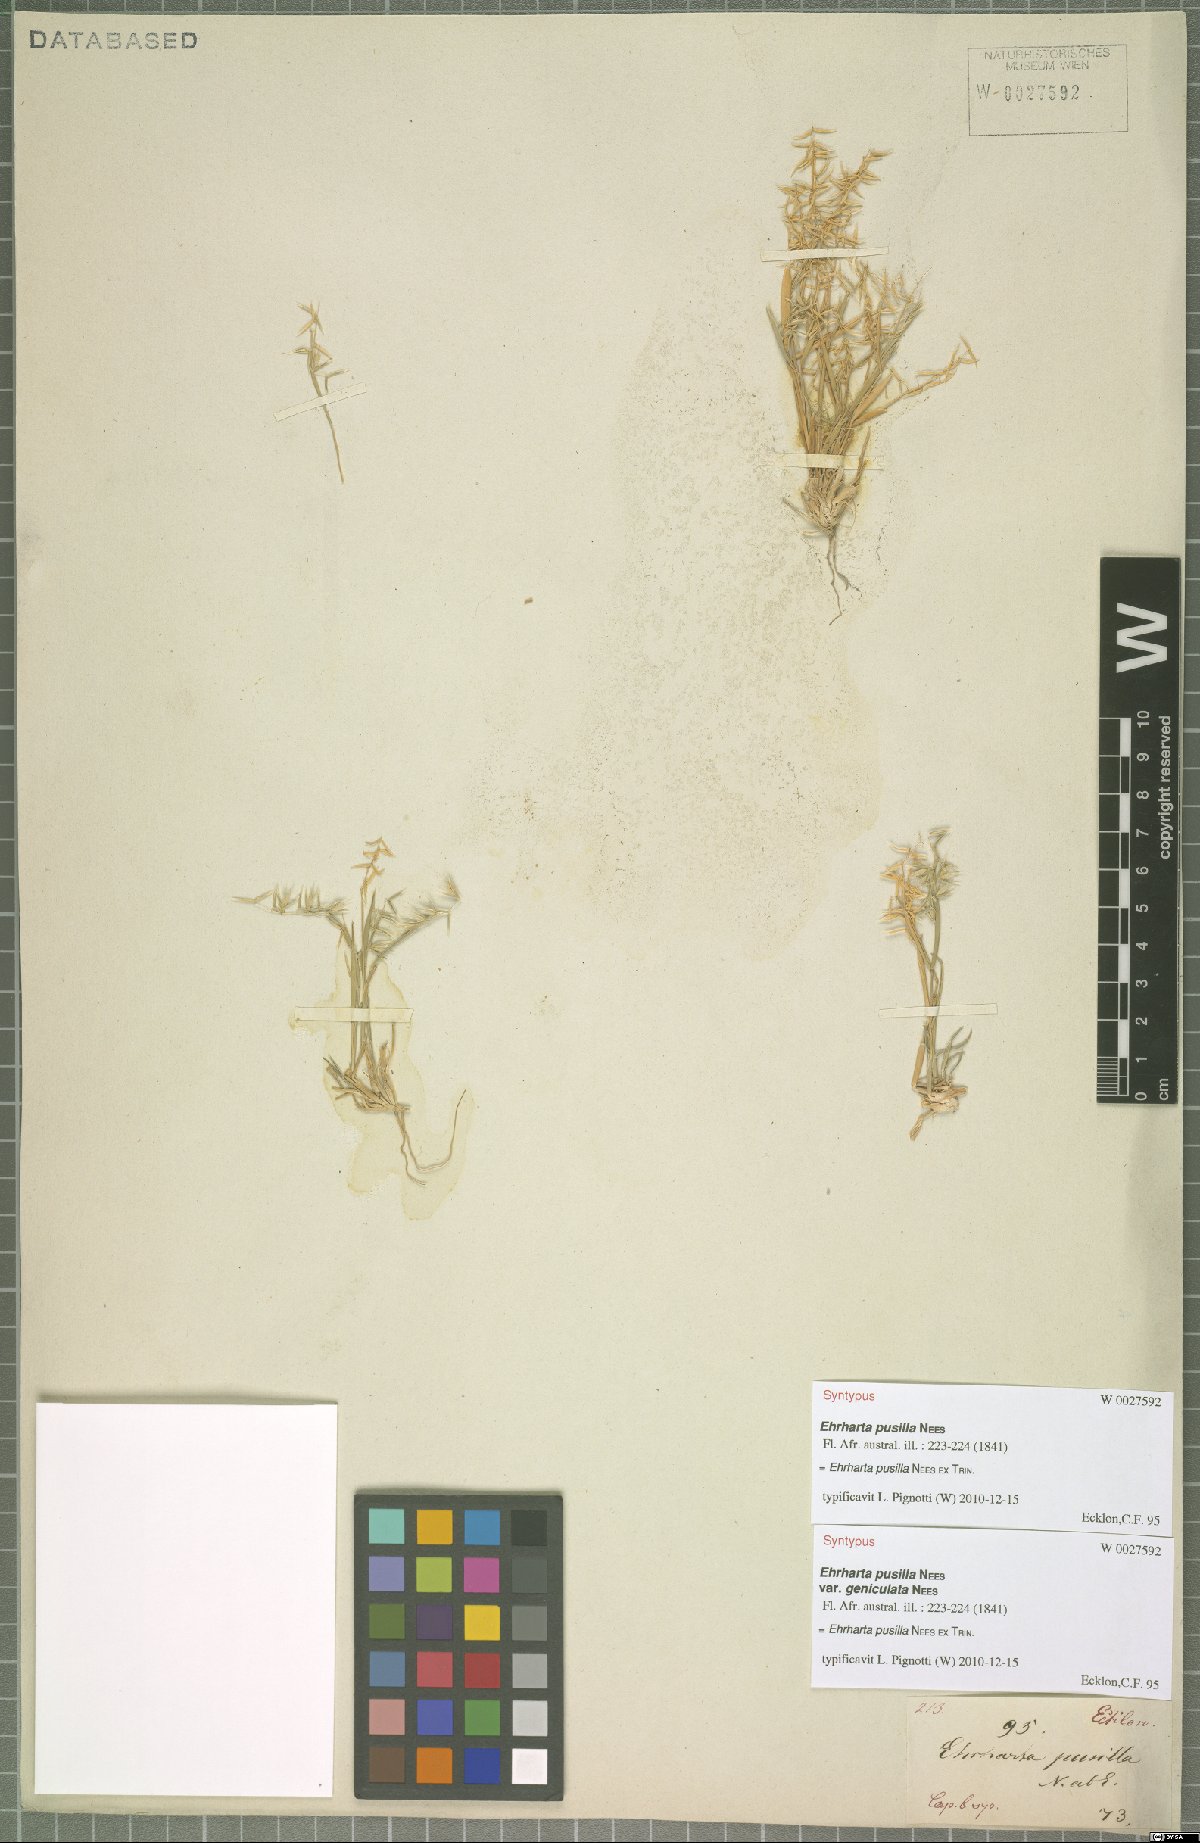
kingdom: Plantae
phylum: Tracheophyta
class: Liliopsida
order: Poales
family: Poaceae
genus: Ehrharta
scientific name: Ehrharta pusilla
